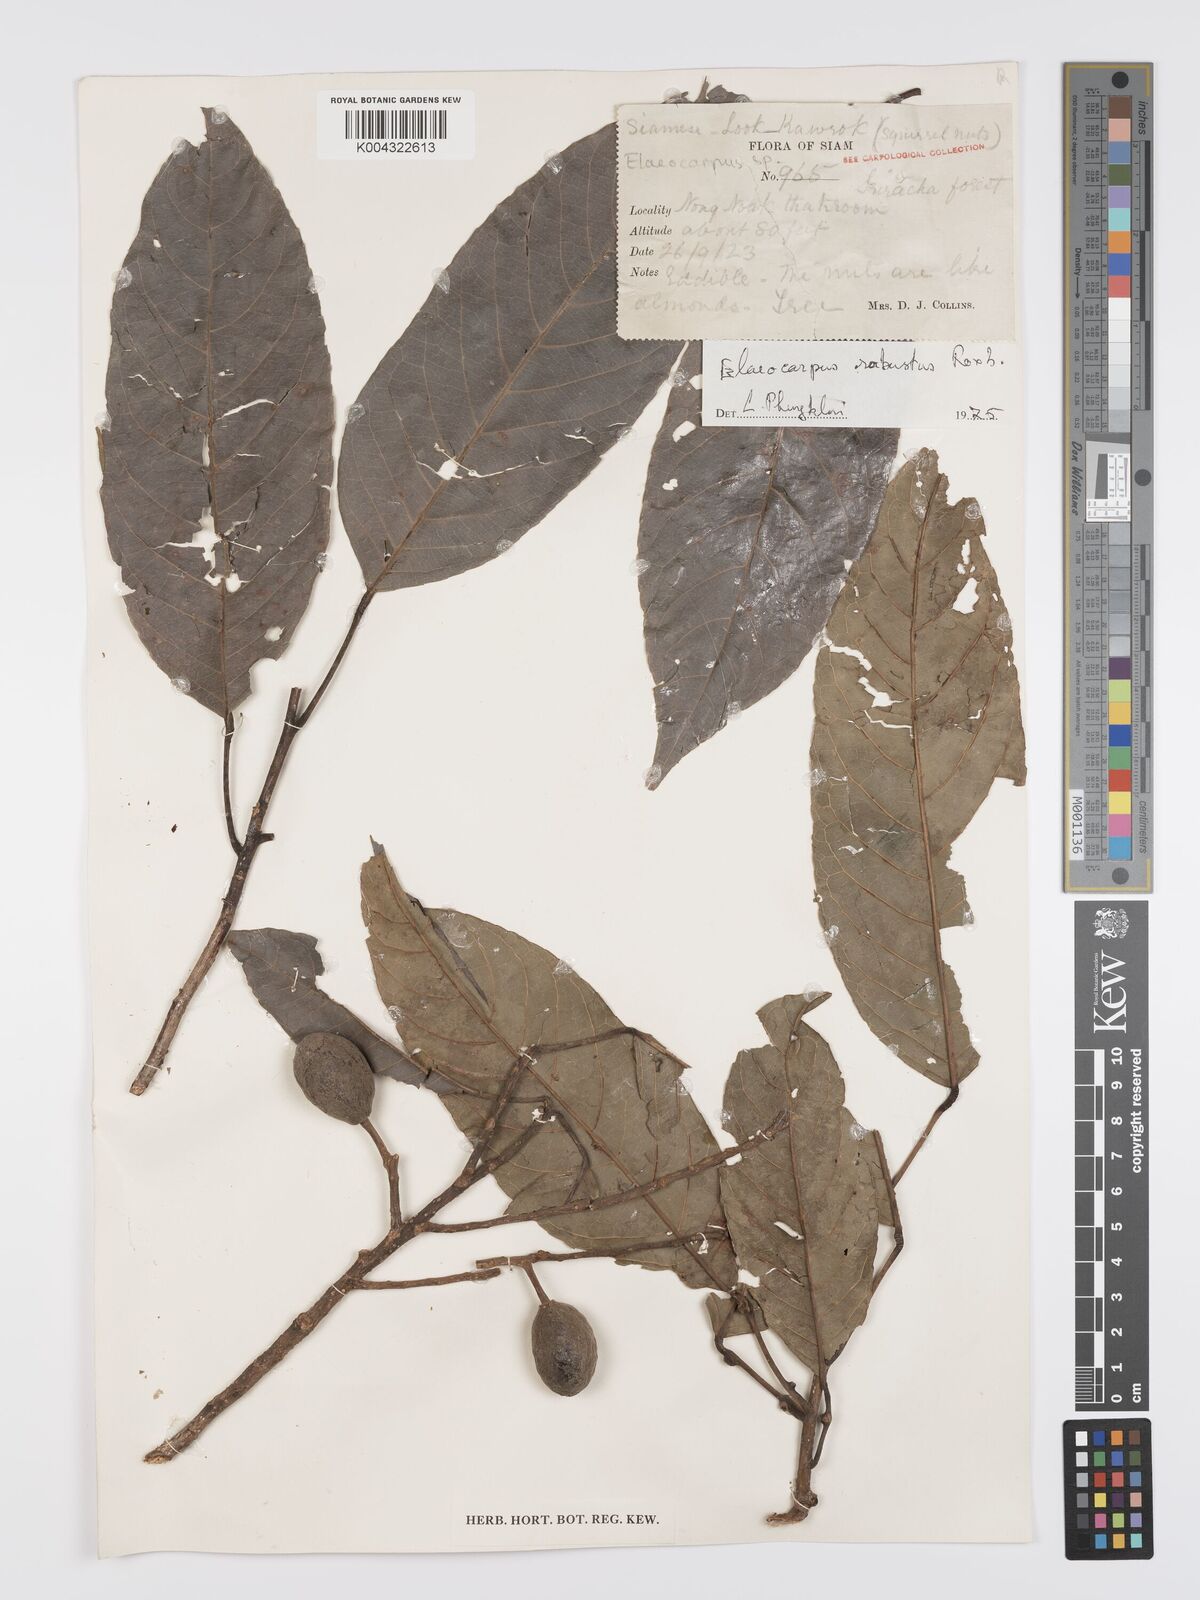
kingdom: Plantae
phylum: Tracheophyta
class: Magnoliopsida
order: Oxalidales
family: Elaeocarpaceae
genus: Elaeocarpus
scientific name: Elaeocarpus robustus
